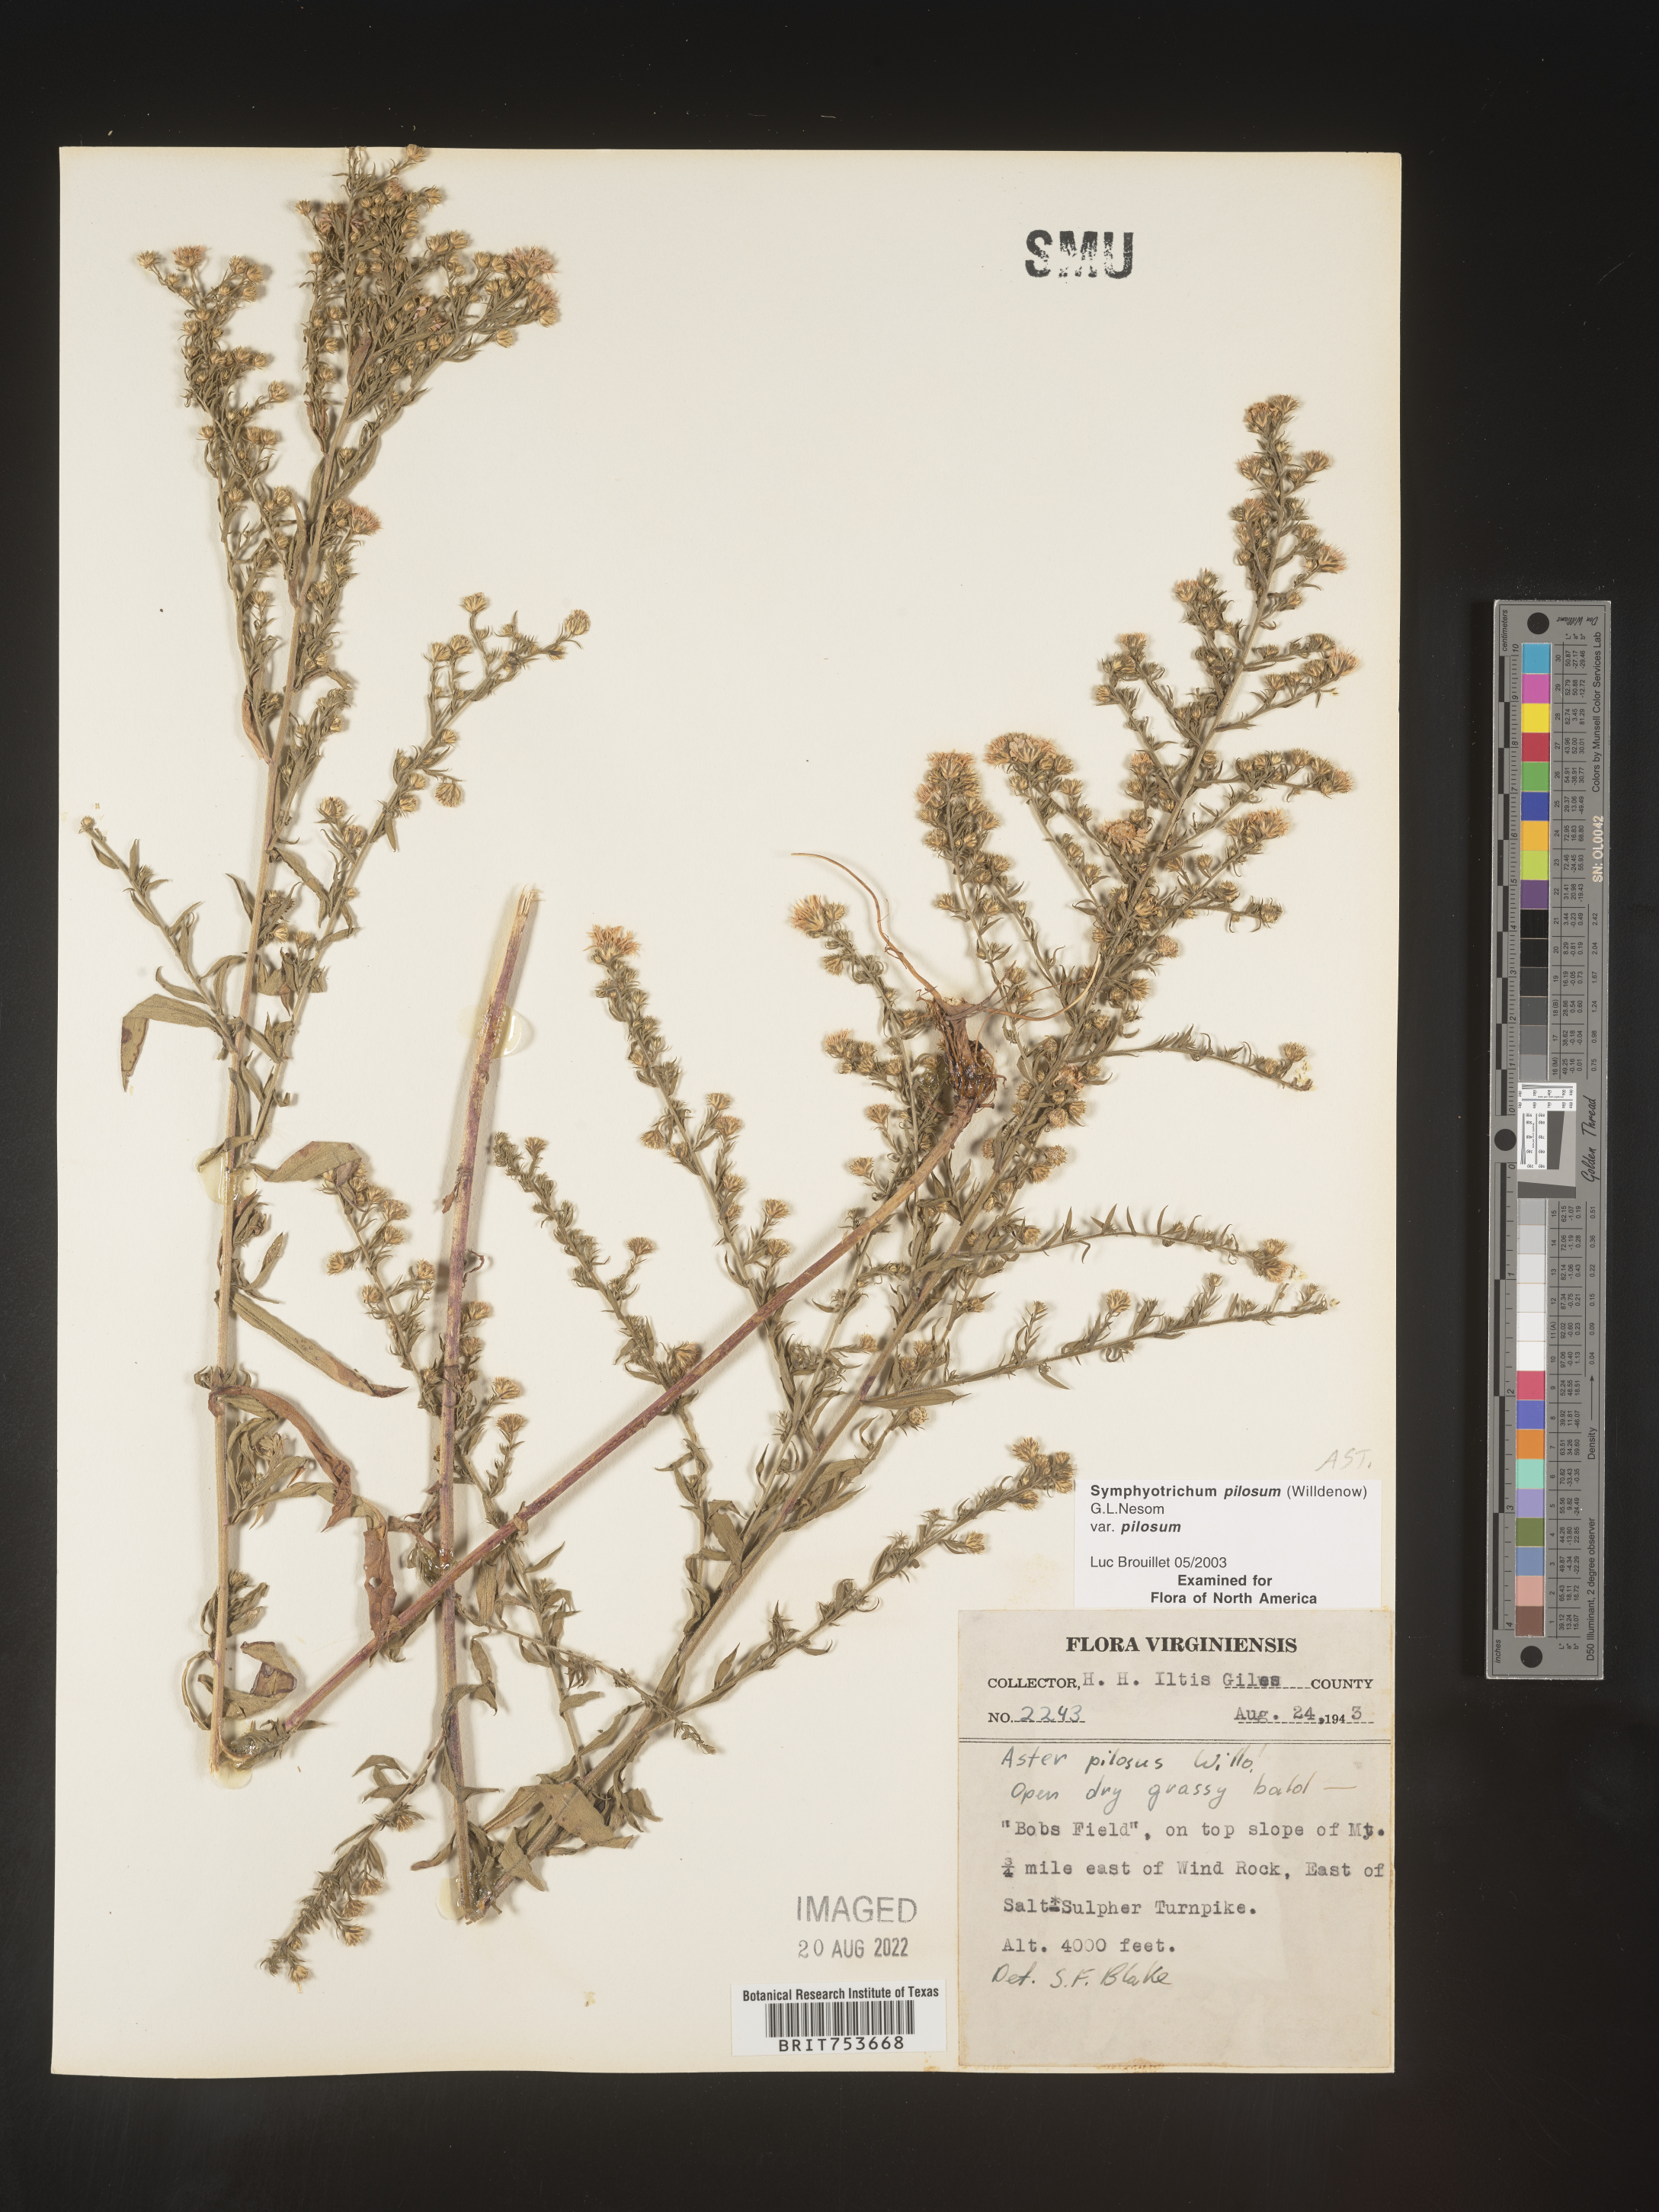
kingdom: Plantae
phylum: Tracheophyta
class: Magnoliopsida
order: Asterales
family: Asteraceae
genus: Symphyotrichum
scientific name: Symphyotrichum pilosum
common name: Awl aster
